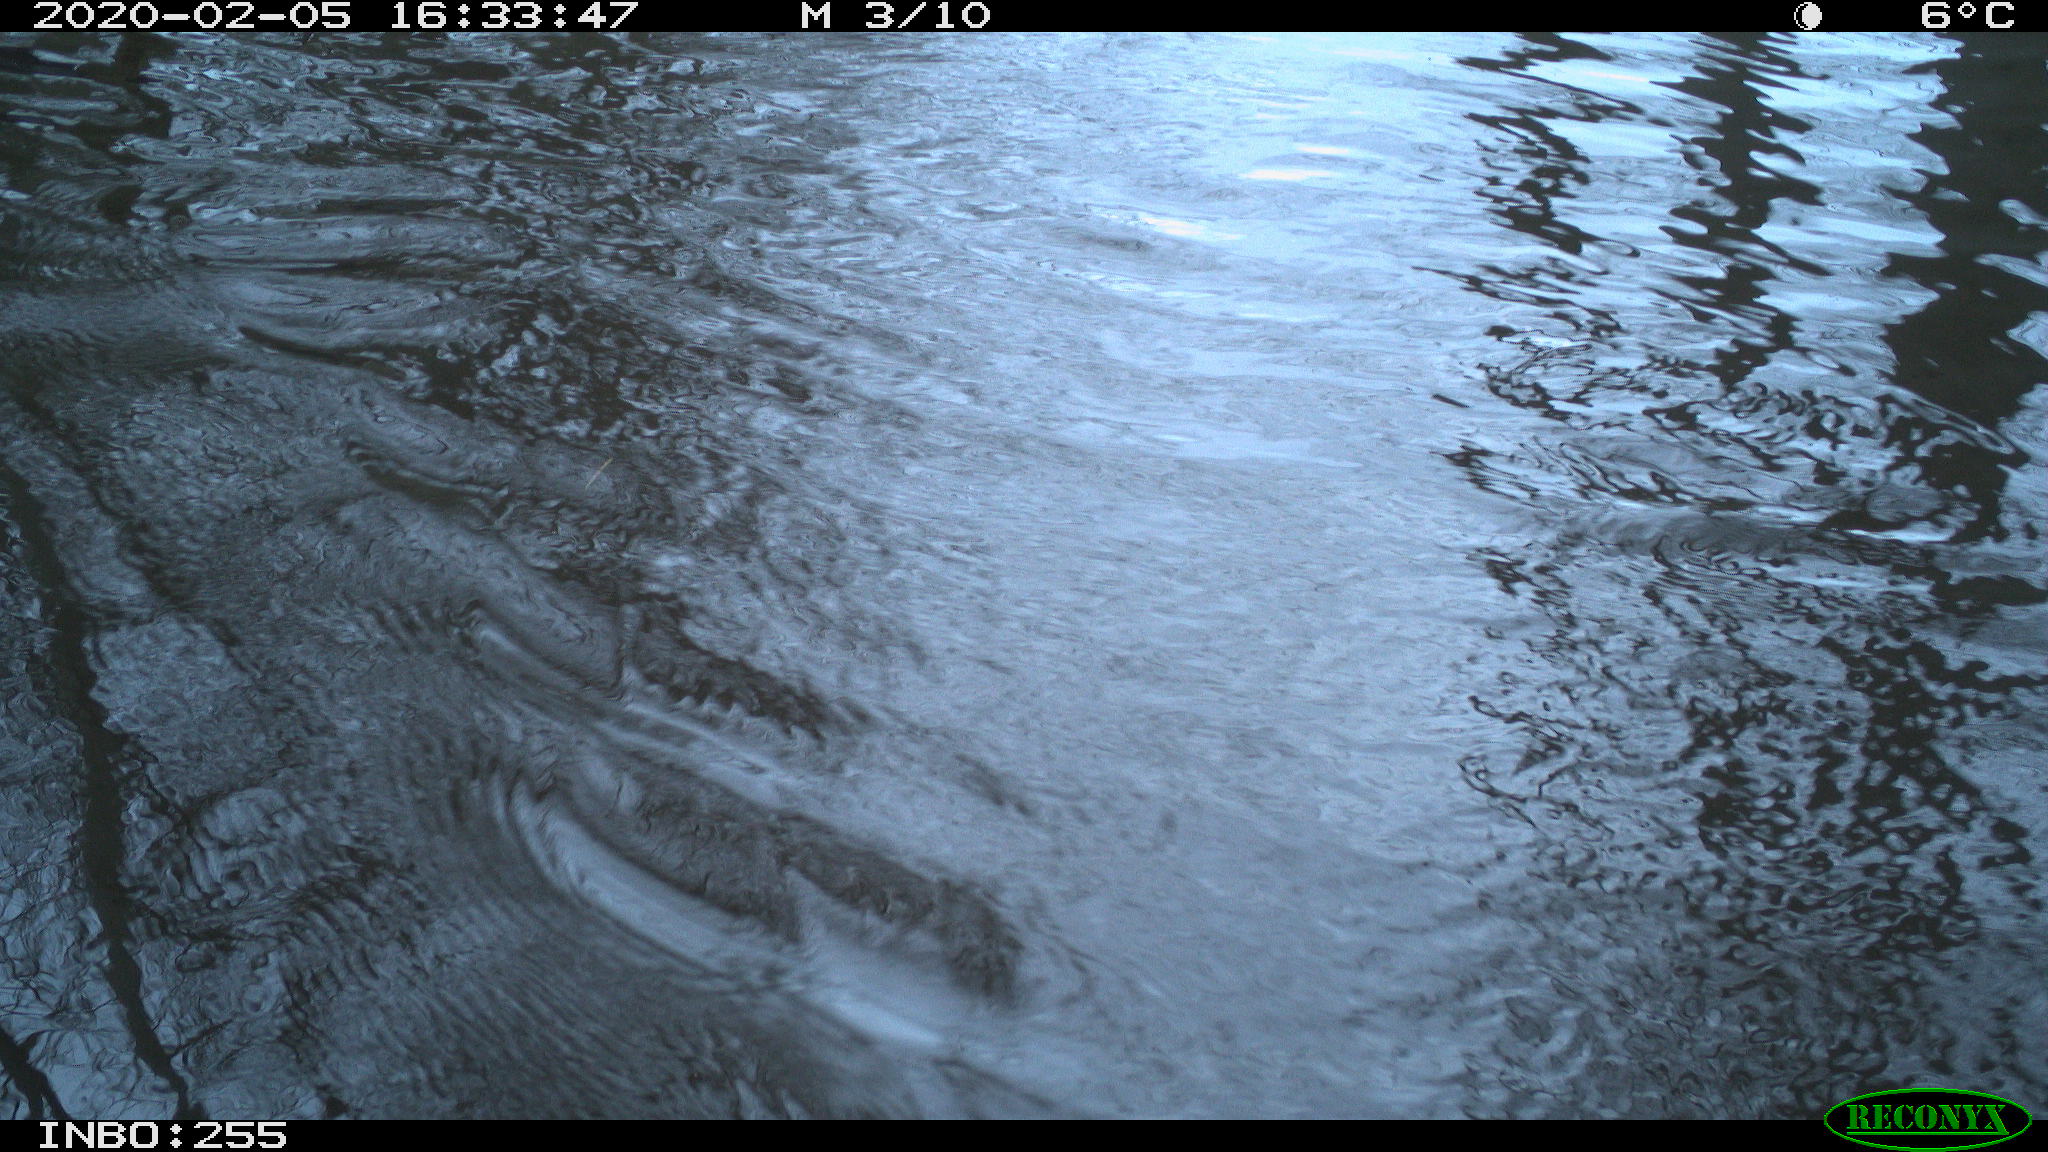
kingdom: Animalia
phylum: Chordata
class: Aves
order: Gruiformes
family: Rallidae
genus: Fulica
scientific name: Fulica atra
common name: Eurasian coot
